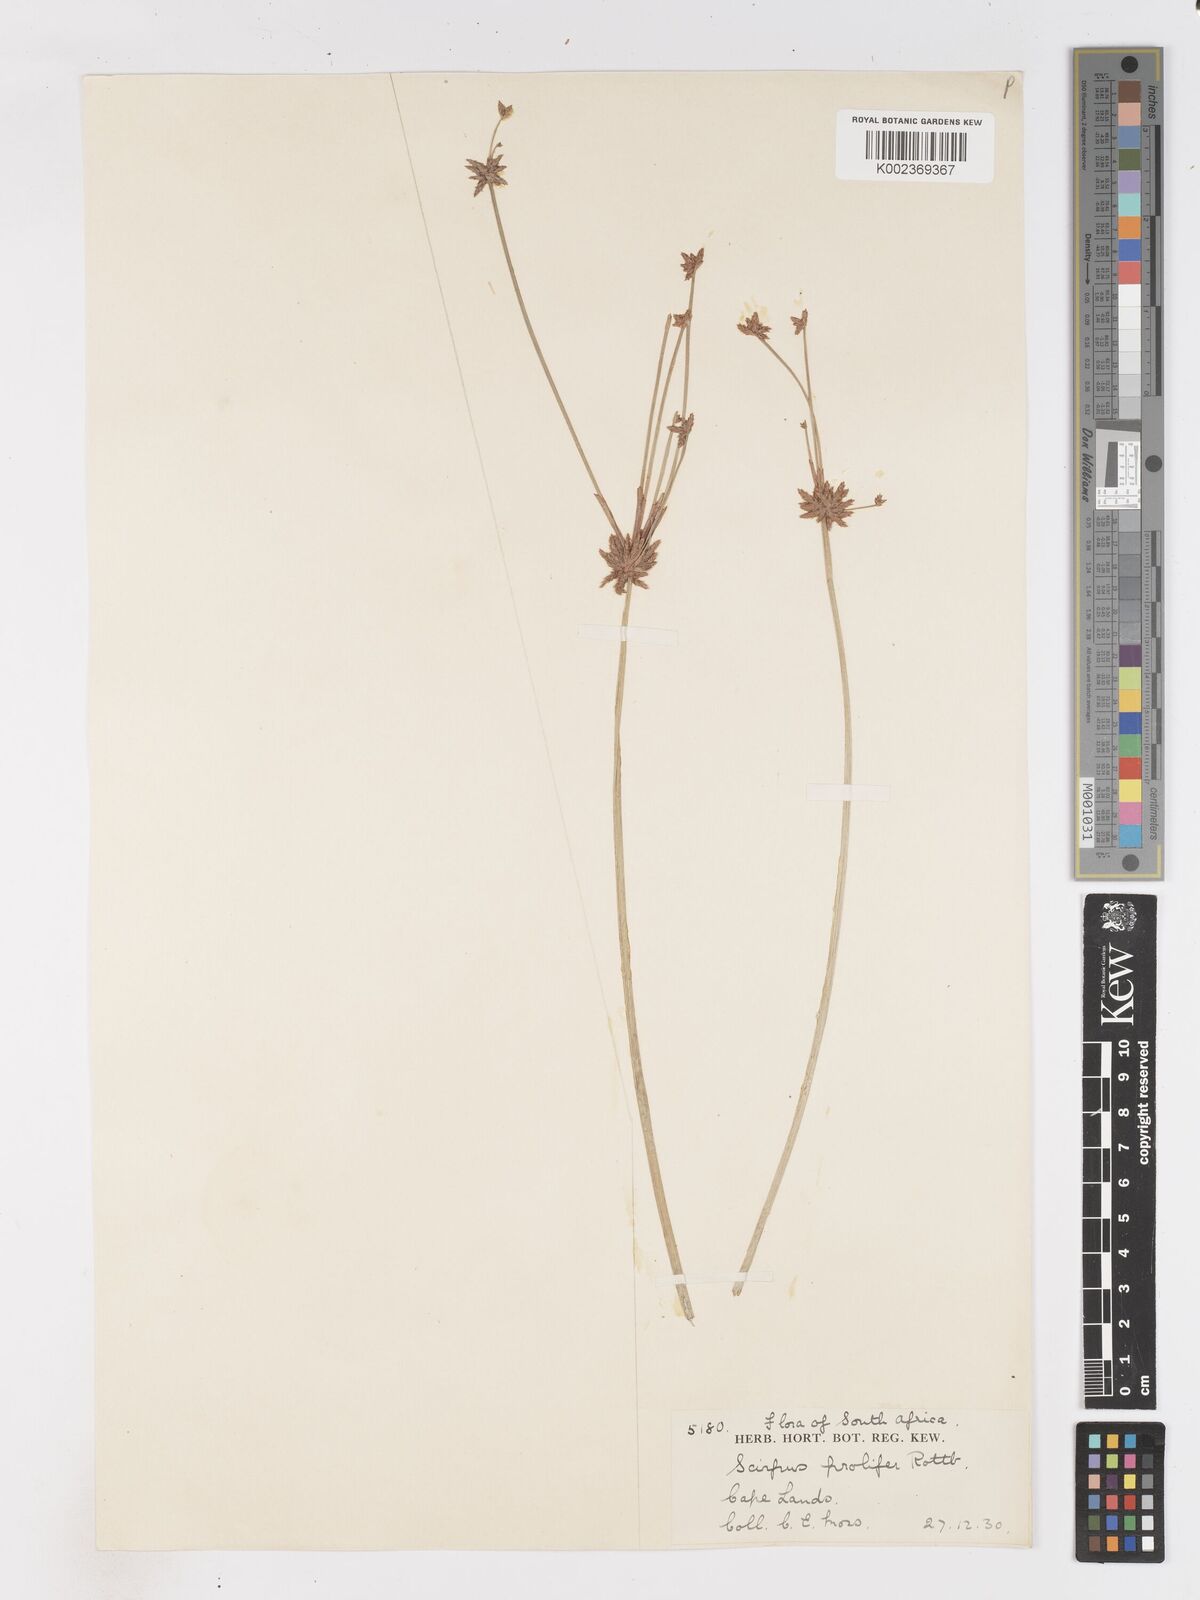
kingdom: Plantae
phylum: Tracheophyta
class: Liliopsida
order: Poales
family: Cyperaceae
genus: Isolepis
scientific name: Isolepis prolifera
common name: Proliferating bulrush
